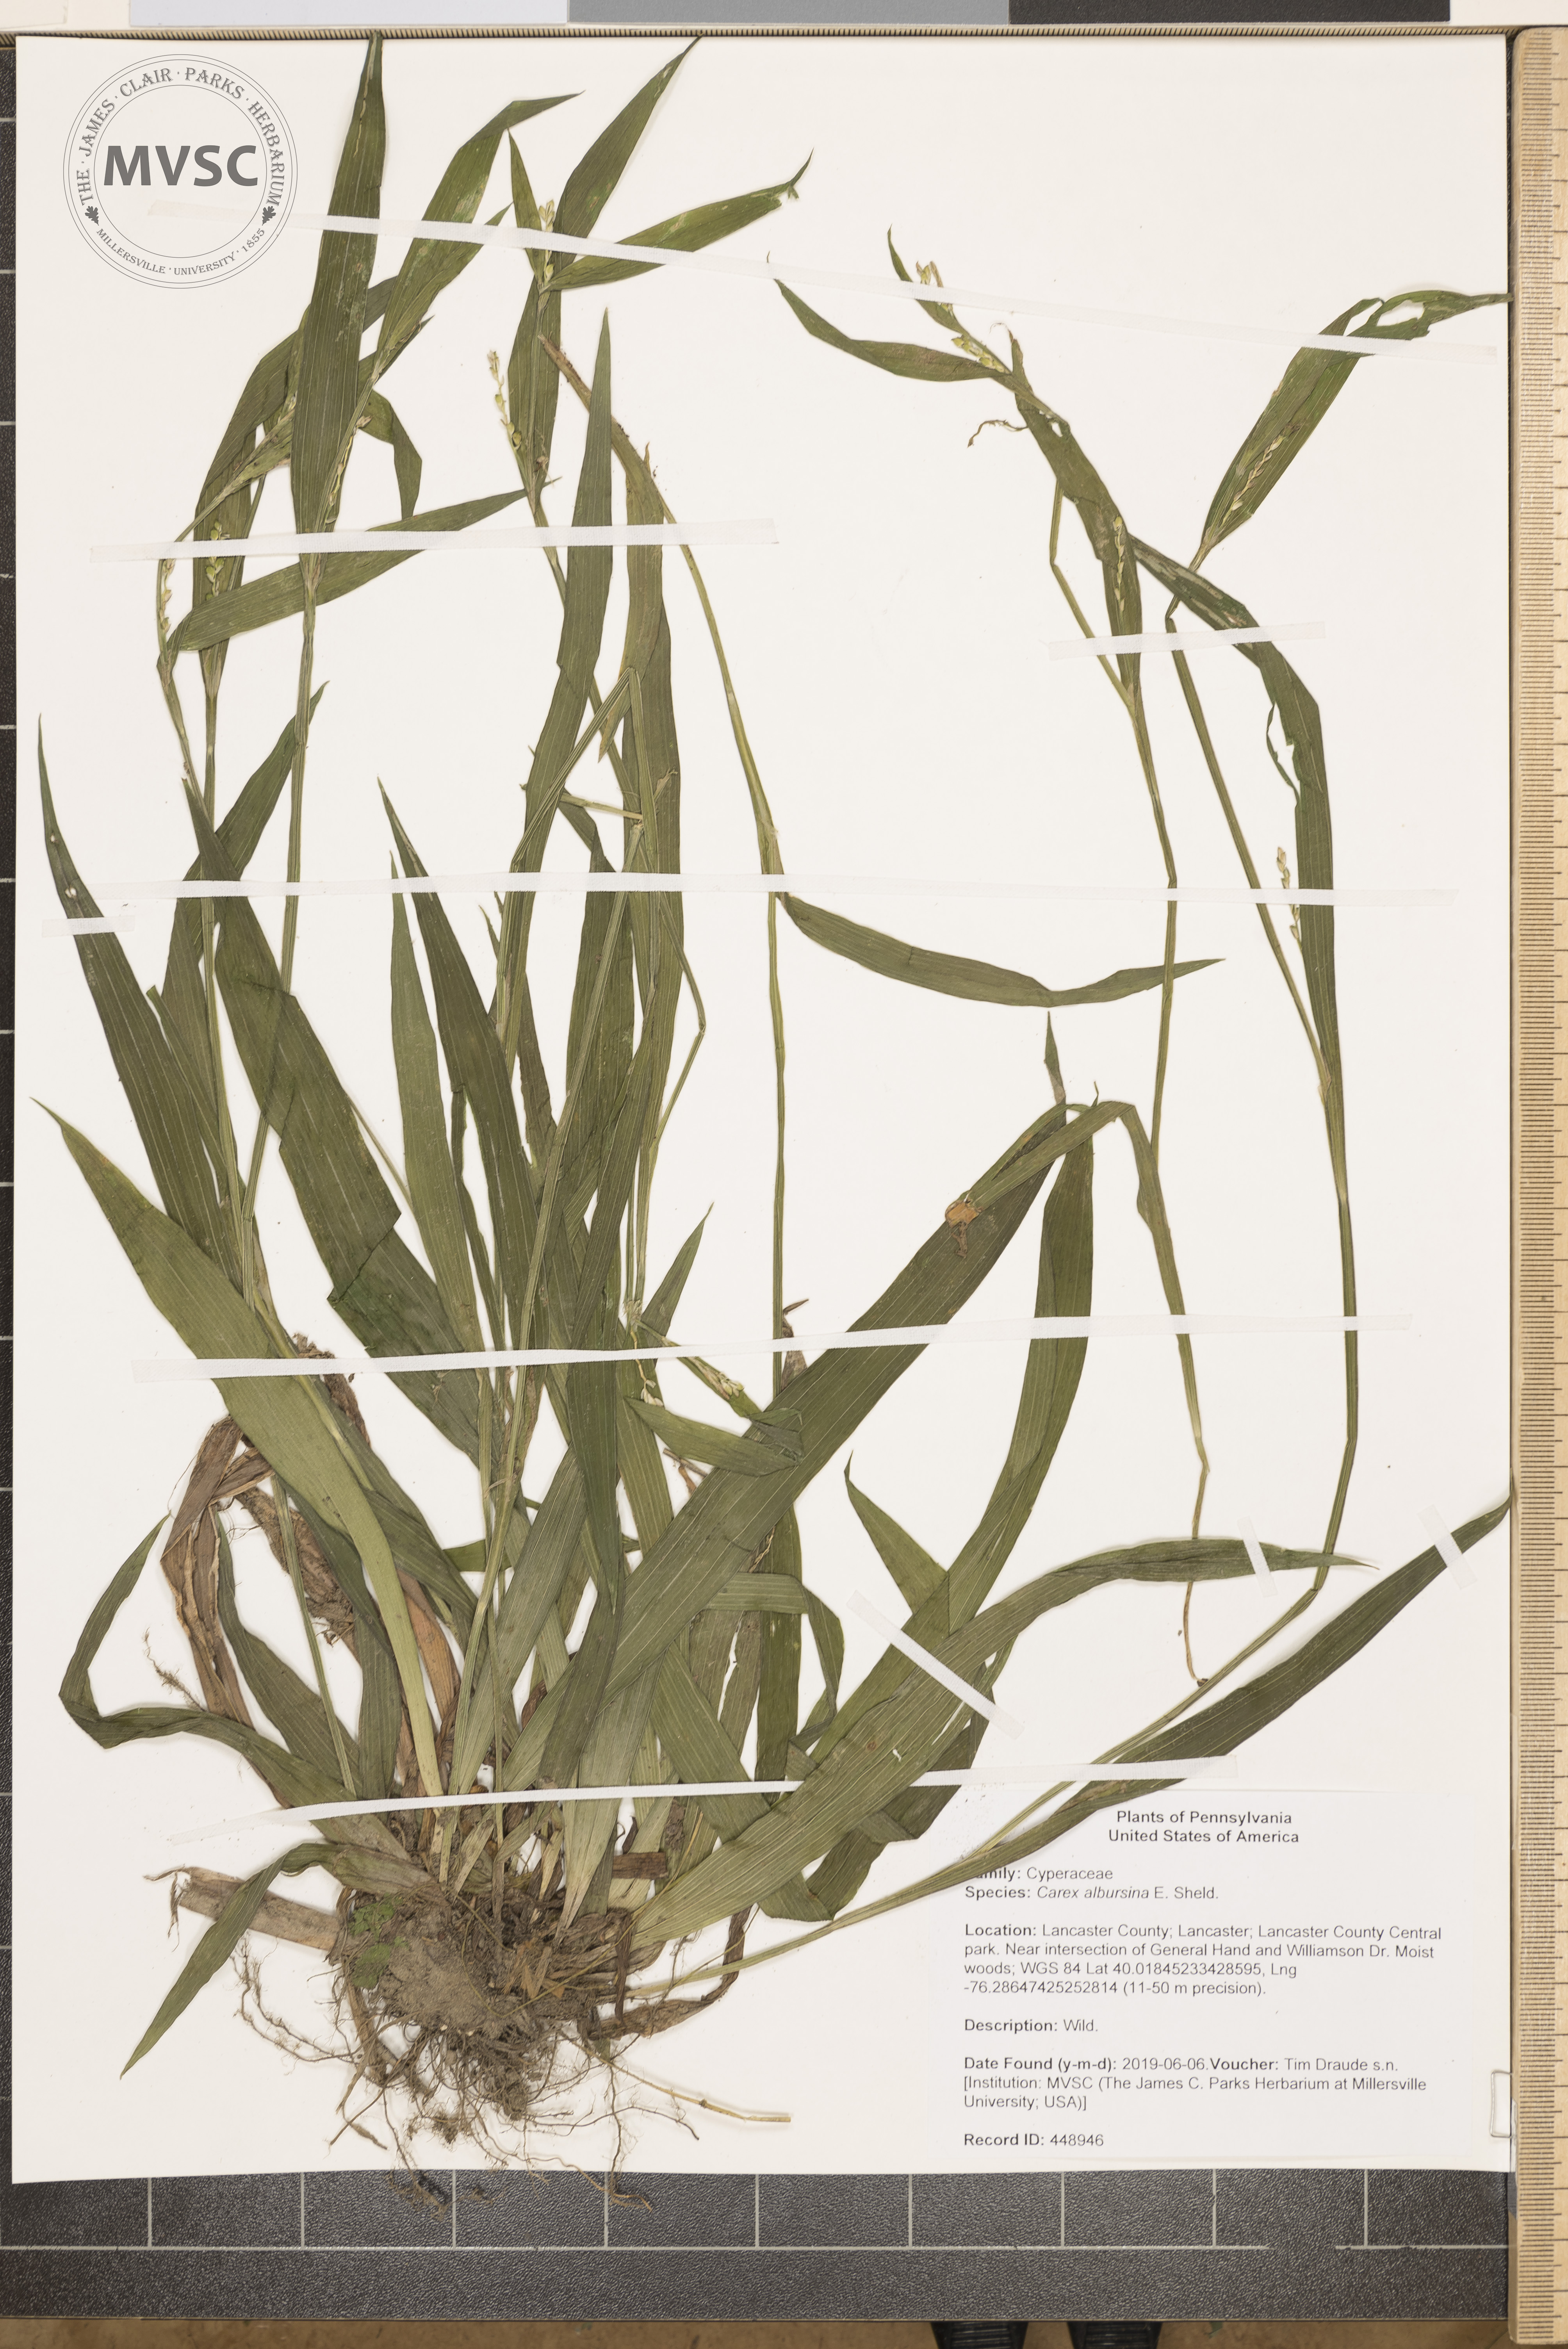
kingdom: Plantae
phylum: Tracheophyta
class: Liliopsida
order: Poales
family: Cyperaceae
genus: Carex
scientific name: Carex albursina
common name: Blunt-scale wood sedge
